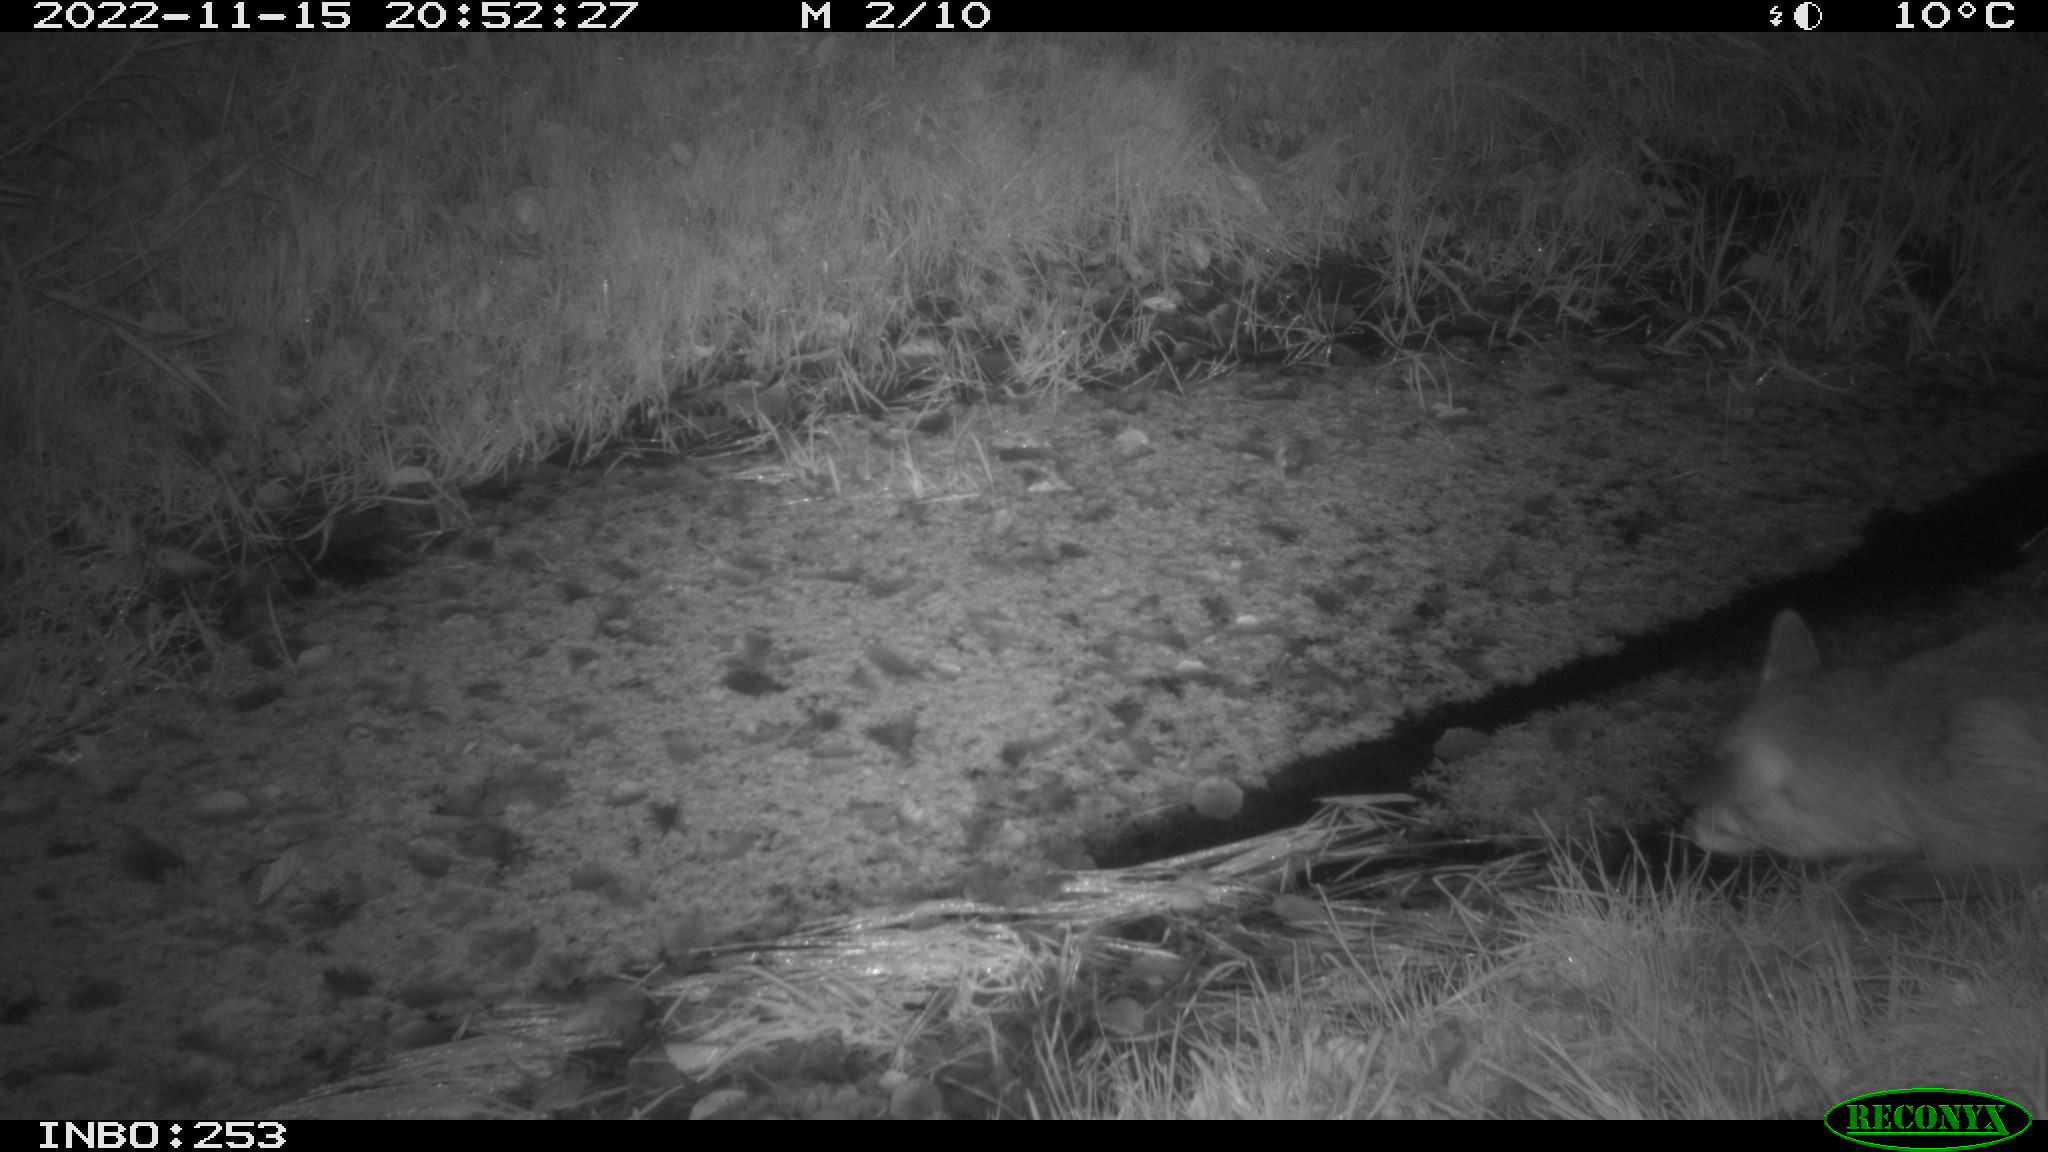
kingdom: Animalia
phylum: Chordata
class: Mammalia
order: Carnivora
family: Canidae
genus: Vulpes
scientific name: Vulpes vulpes
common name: Red fox
